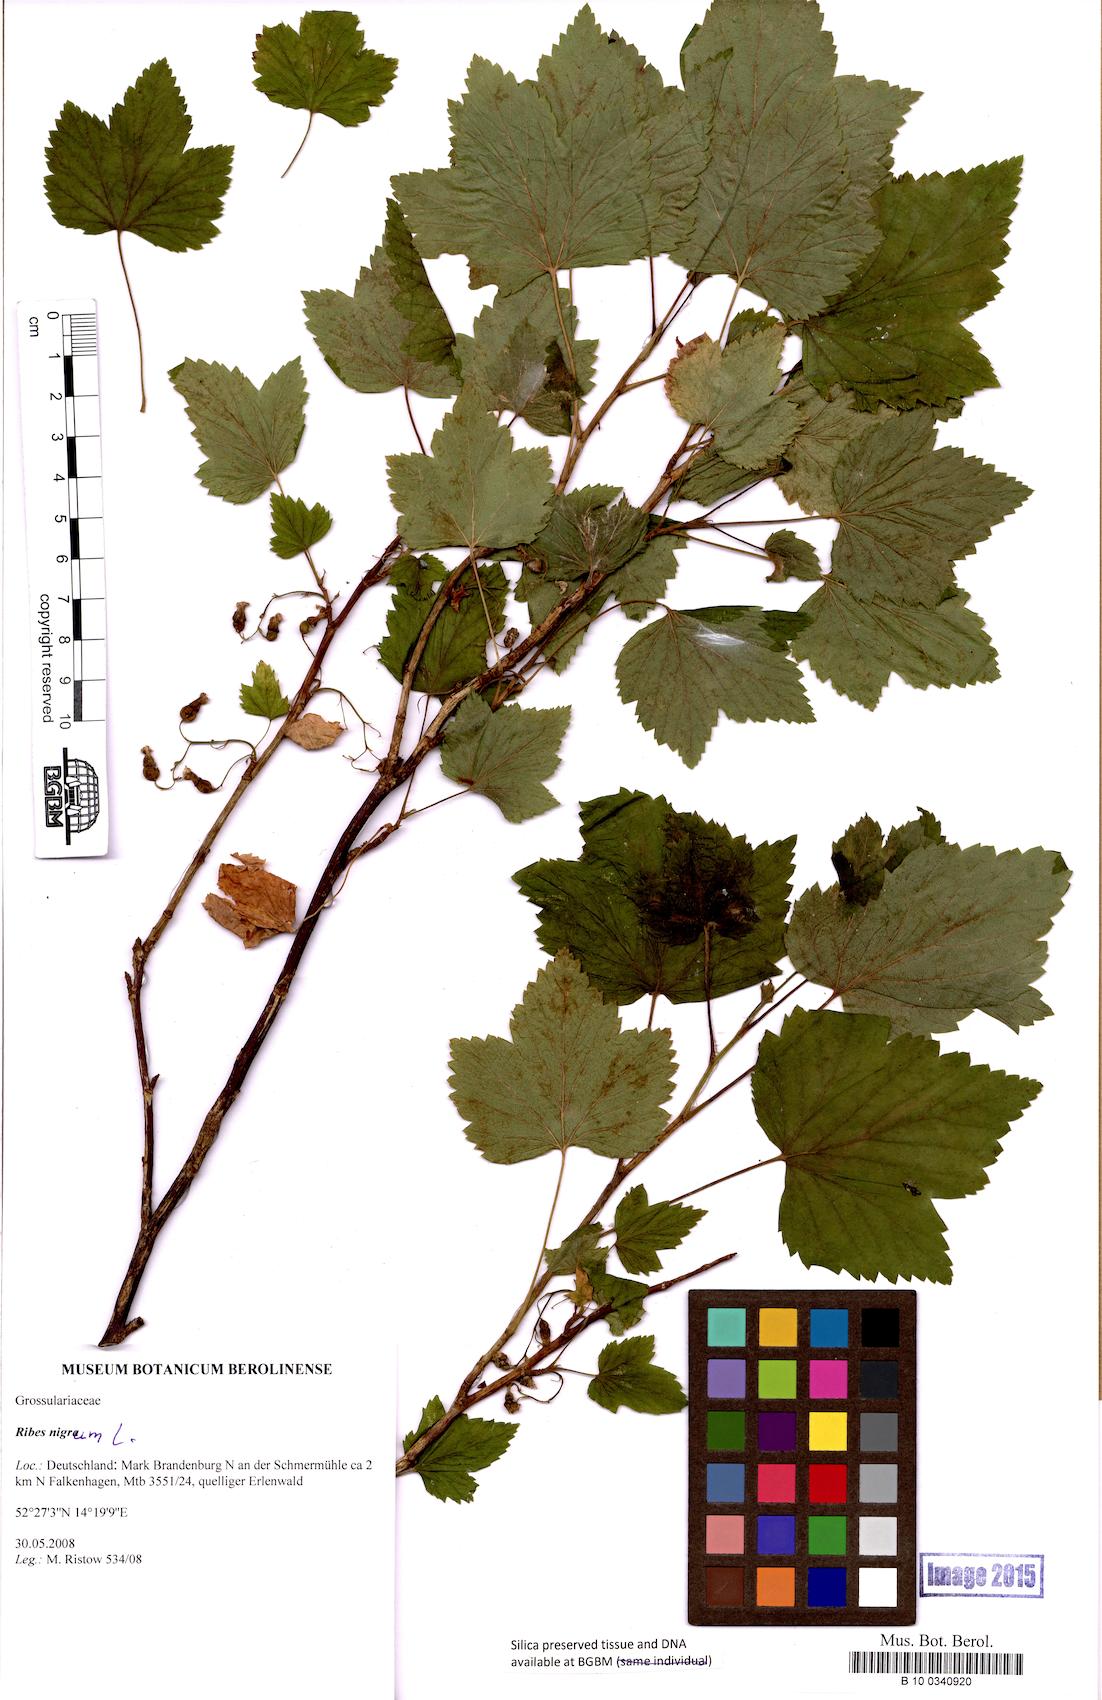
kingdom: Plantae
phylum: Tracheophyta
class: Magnoliopsida
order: Saxifragales
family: Grossulariaceae
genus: Ribes
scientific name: Ribes nigrum
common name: Black currant
